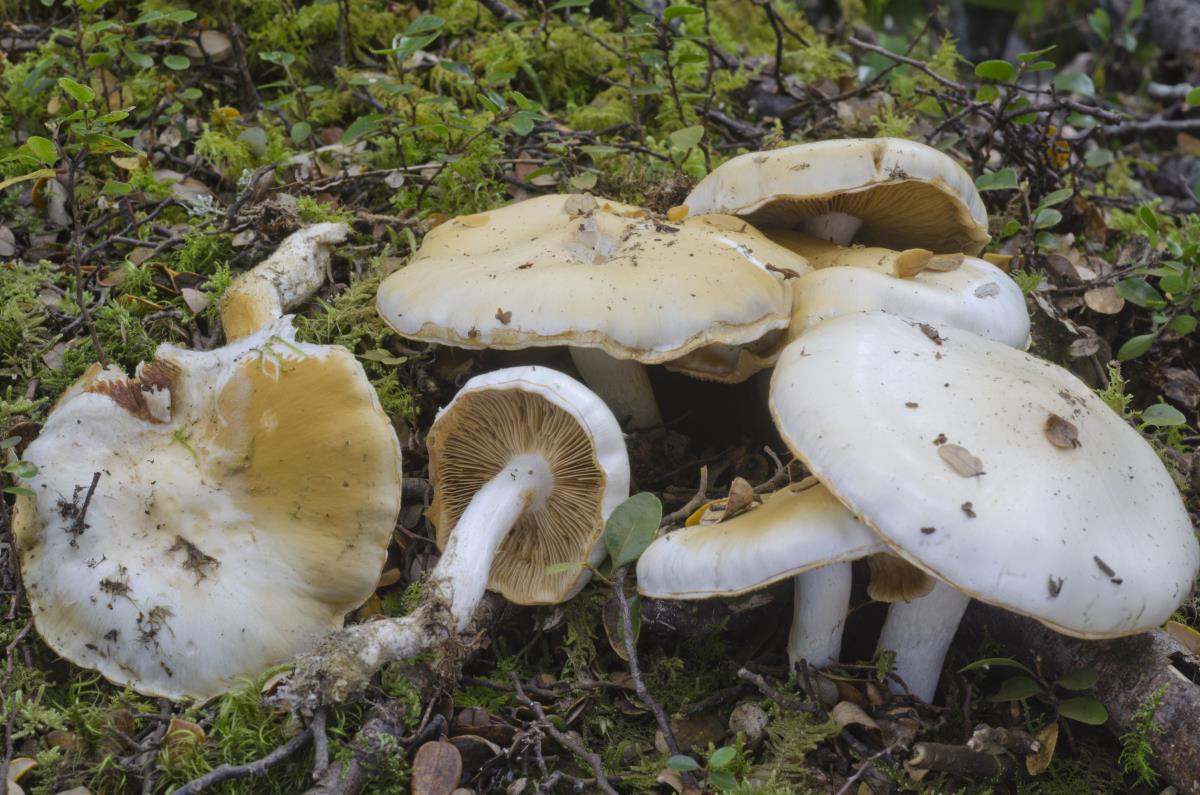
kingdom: Fungi
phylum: Basidiomycota
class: Agaricomycetes
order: Agaricales
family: Cortinariaceae
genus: Thaxterogaster
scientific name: Thaxterogaster cretax
